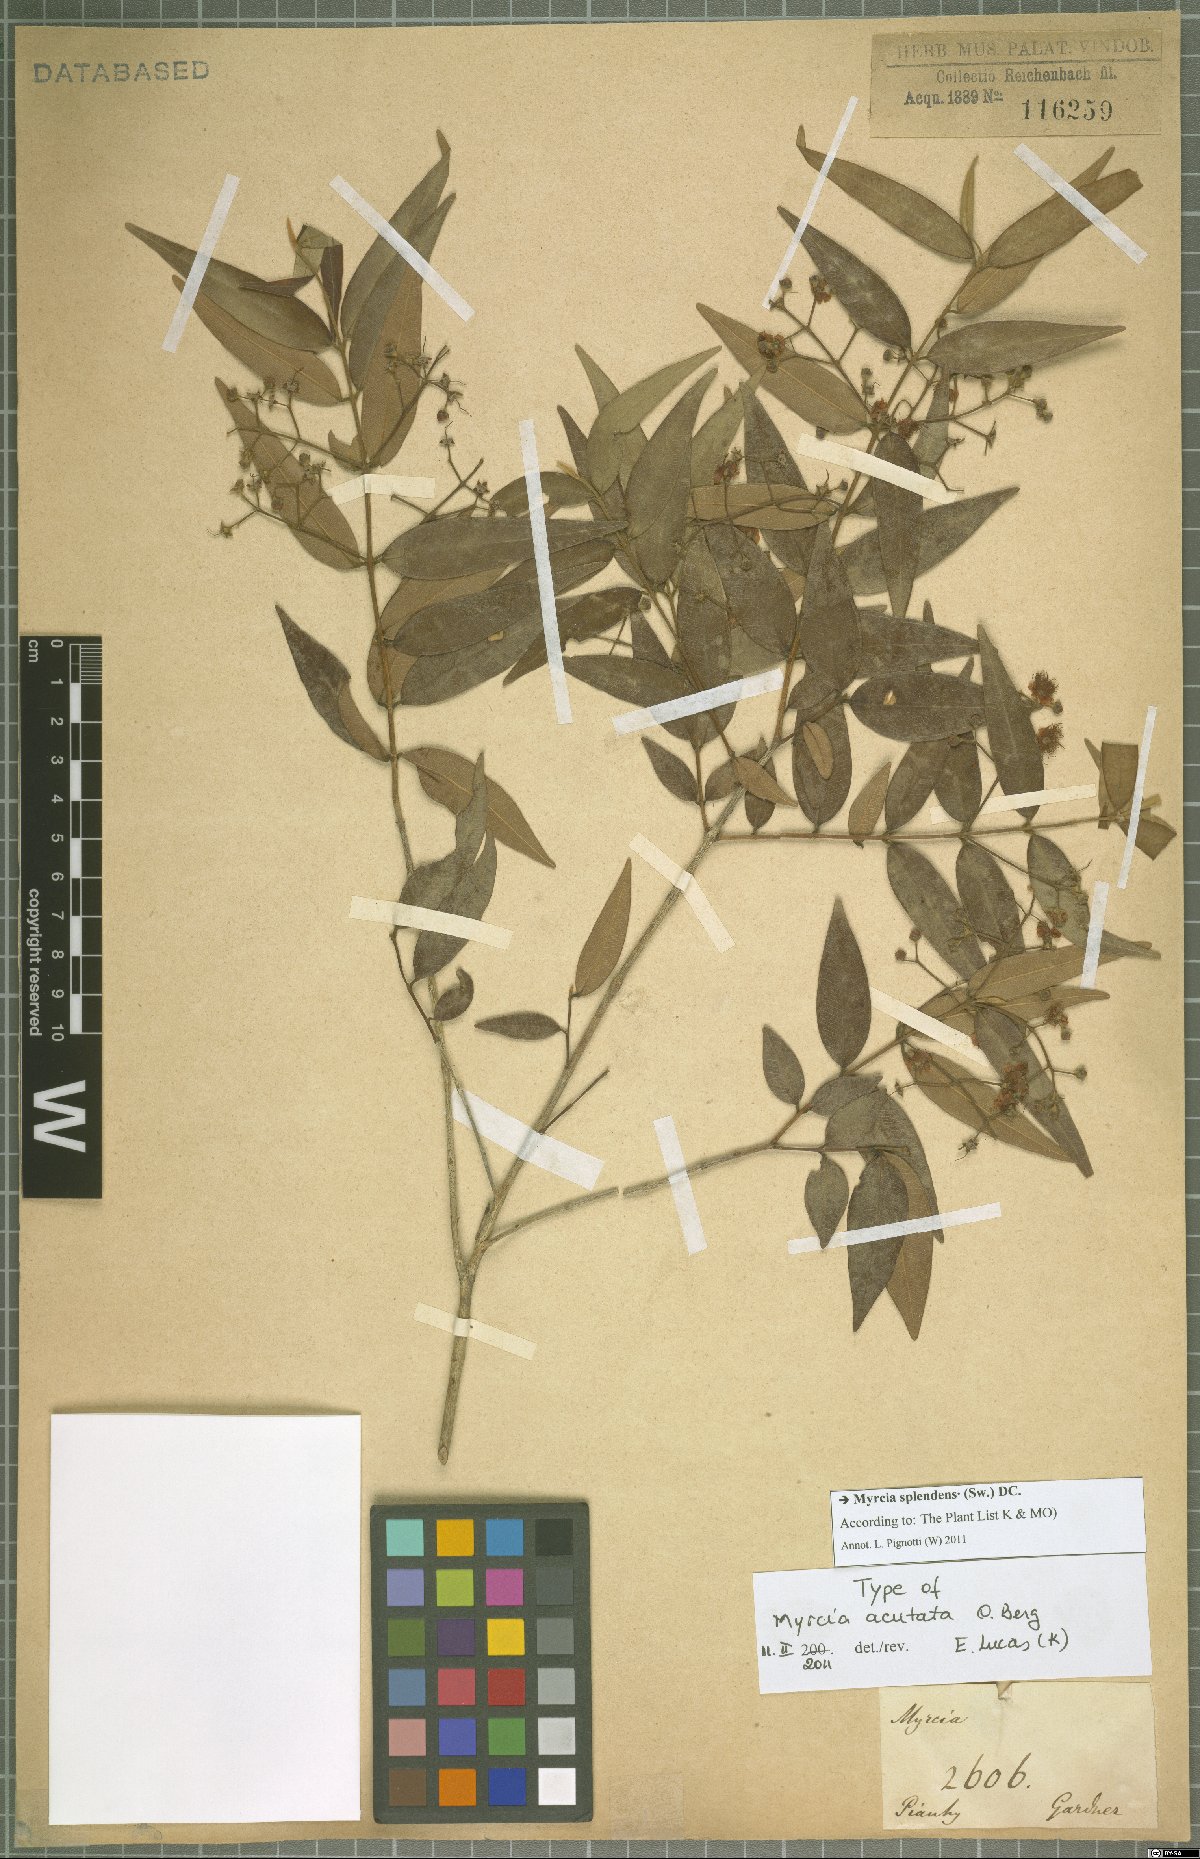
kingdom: Plantae
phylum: Tracheophyta
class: Magnoliopsida
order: Myrtales
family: Myrtaceae
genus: Myrcia
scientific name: Myrcia splendens
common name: Surinam cherry
